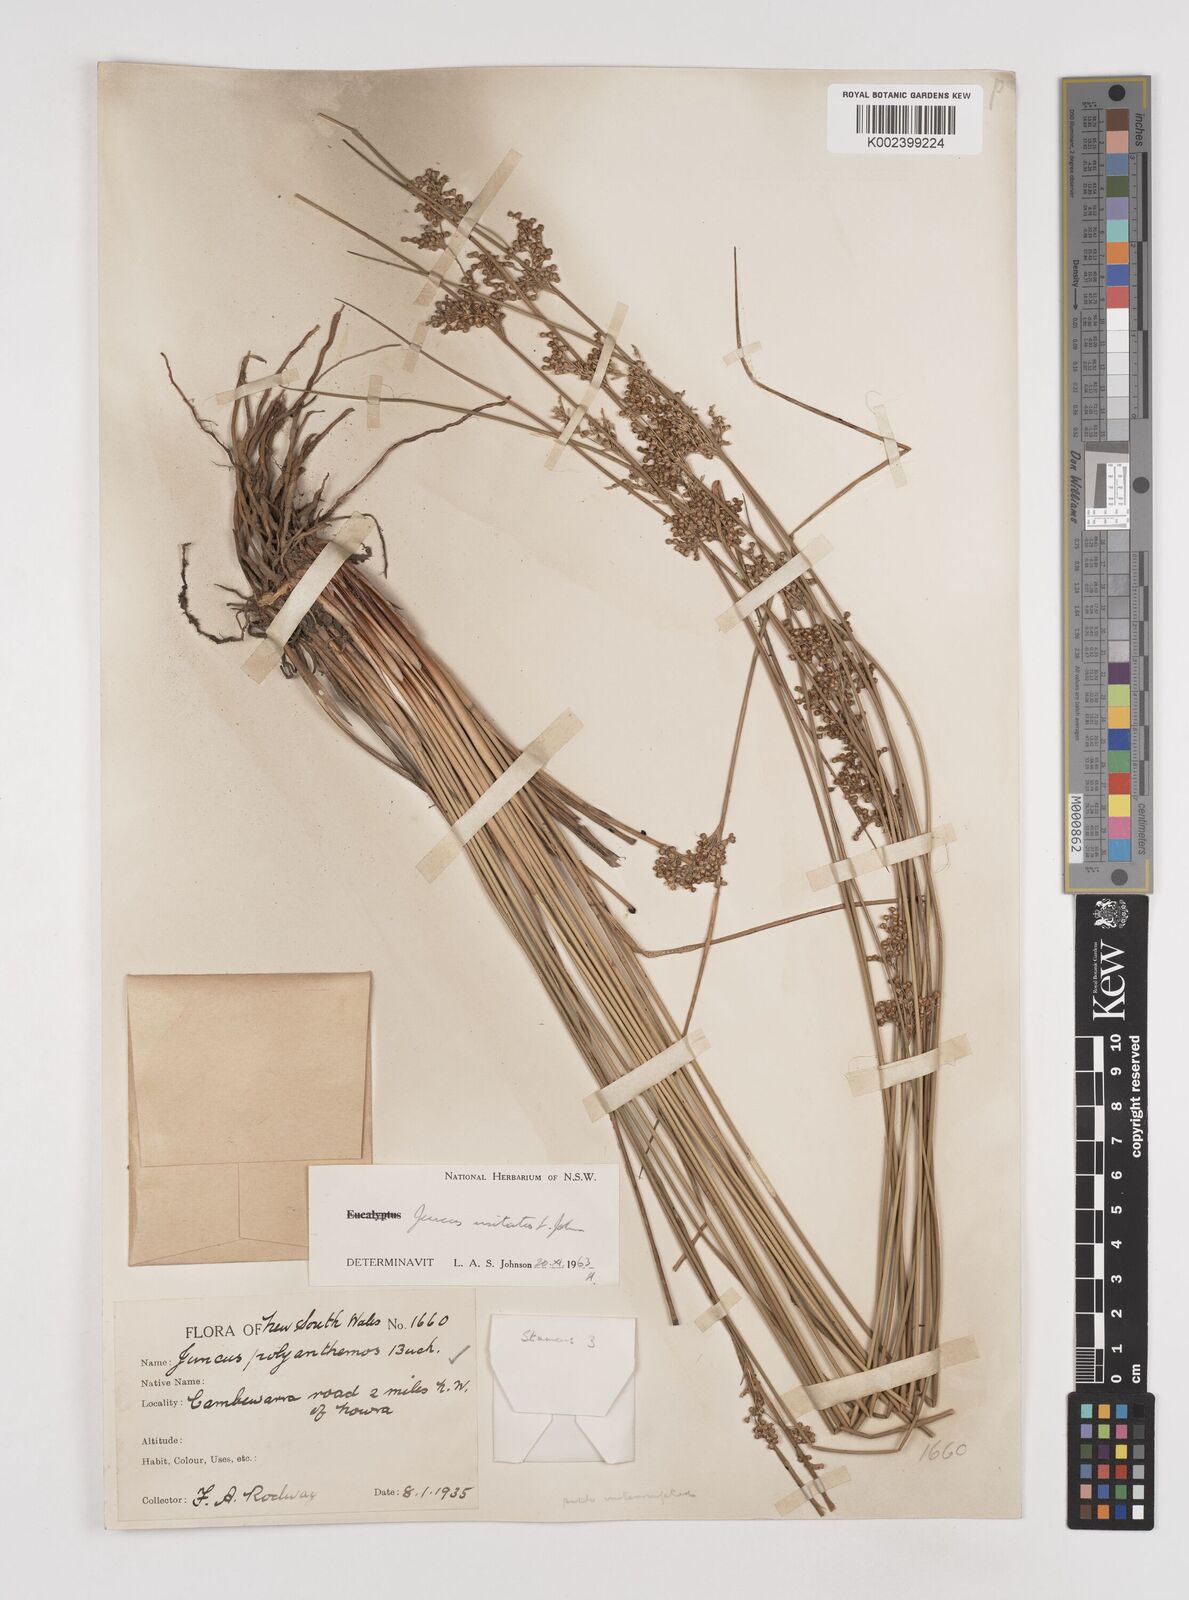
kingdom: Plantae
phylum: Tracheophyta
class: Liliopsida
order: Poales
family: Juncaceae
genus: Juncus
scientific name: Juncus usitatus
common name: Rush
